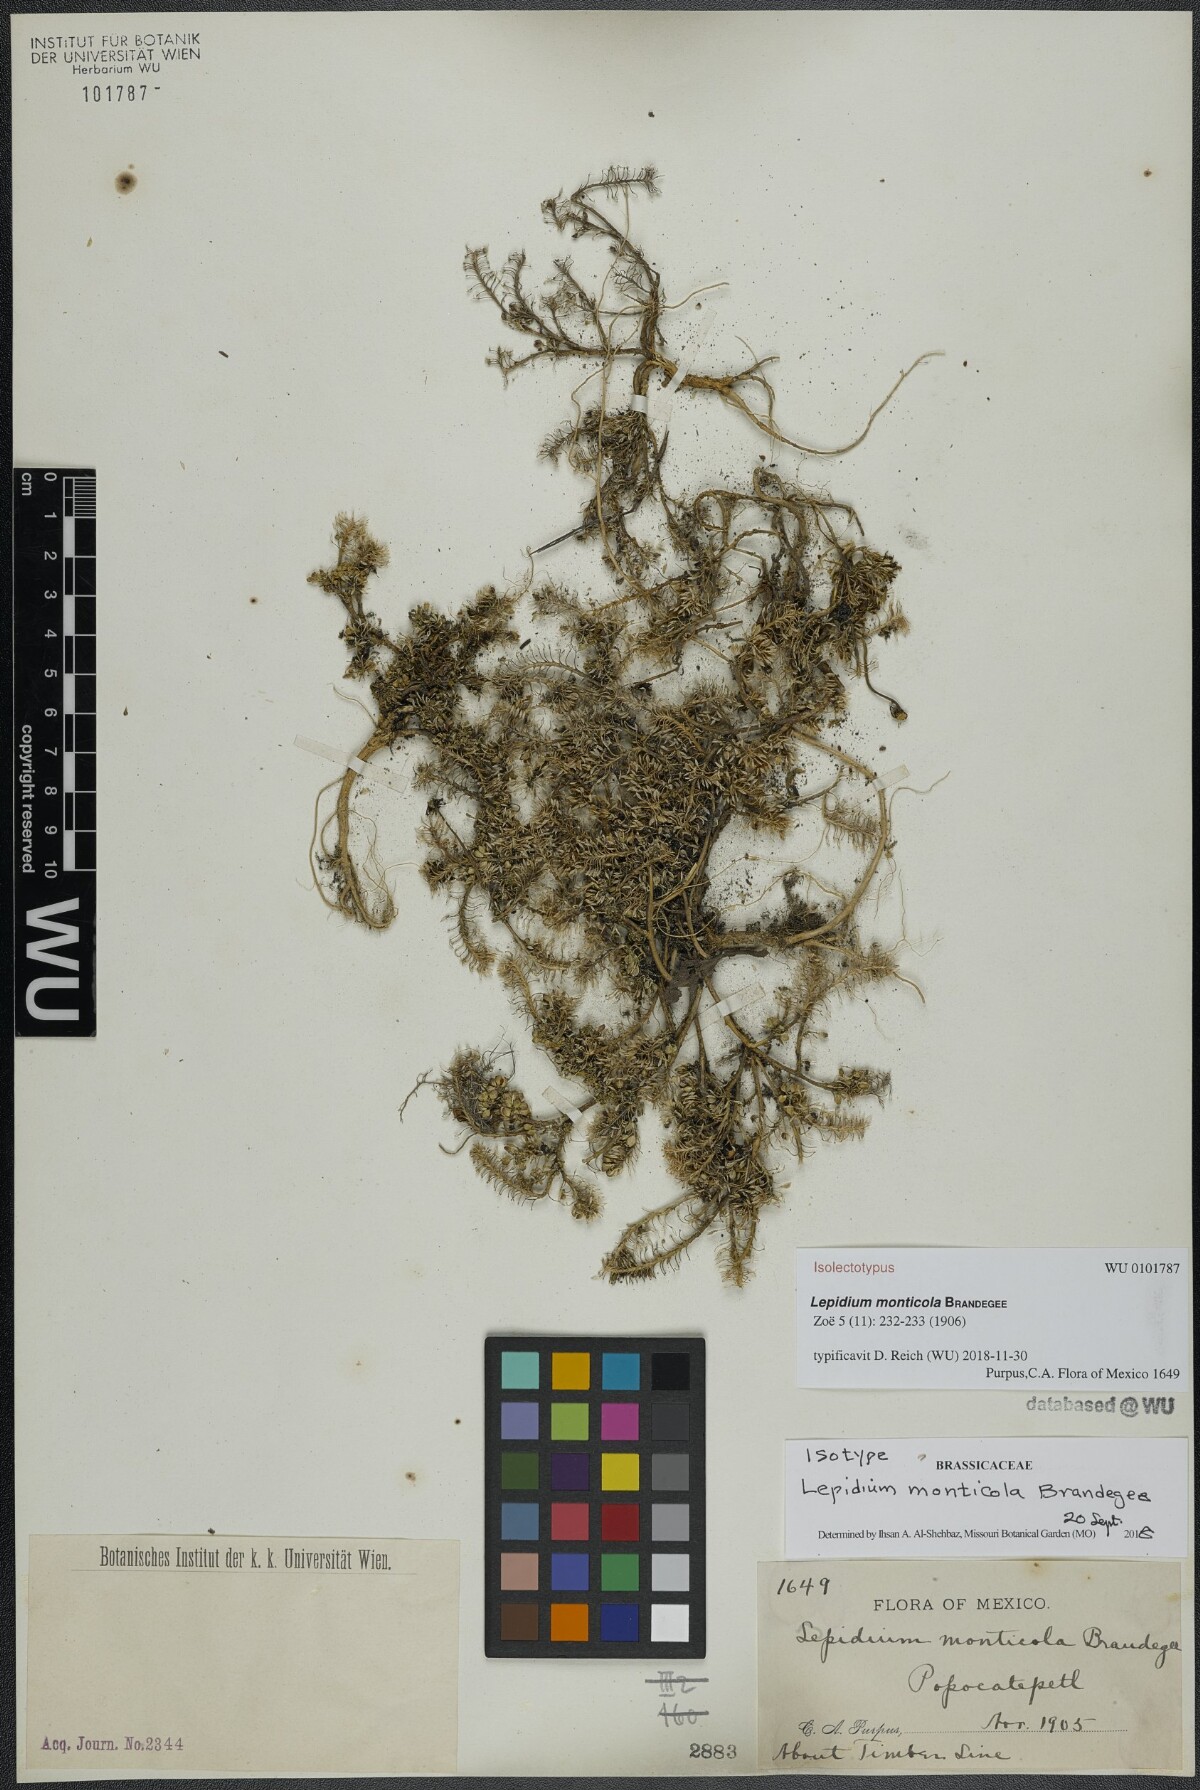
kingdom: Plantae
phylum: Tracheophyta
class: Magnoliopsida
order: Brassicales
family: Brassicaceae
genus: Lepidium
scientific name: Lepidium schaffneri
